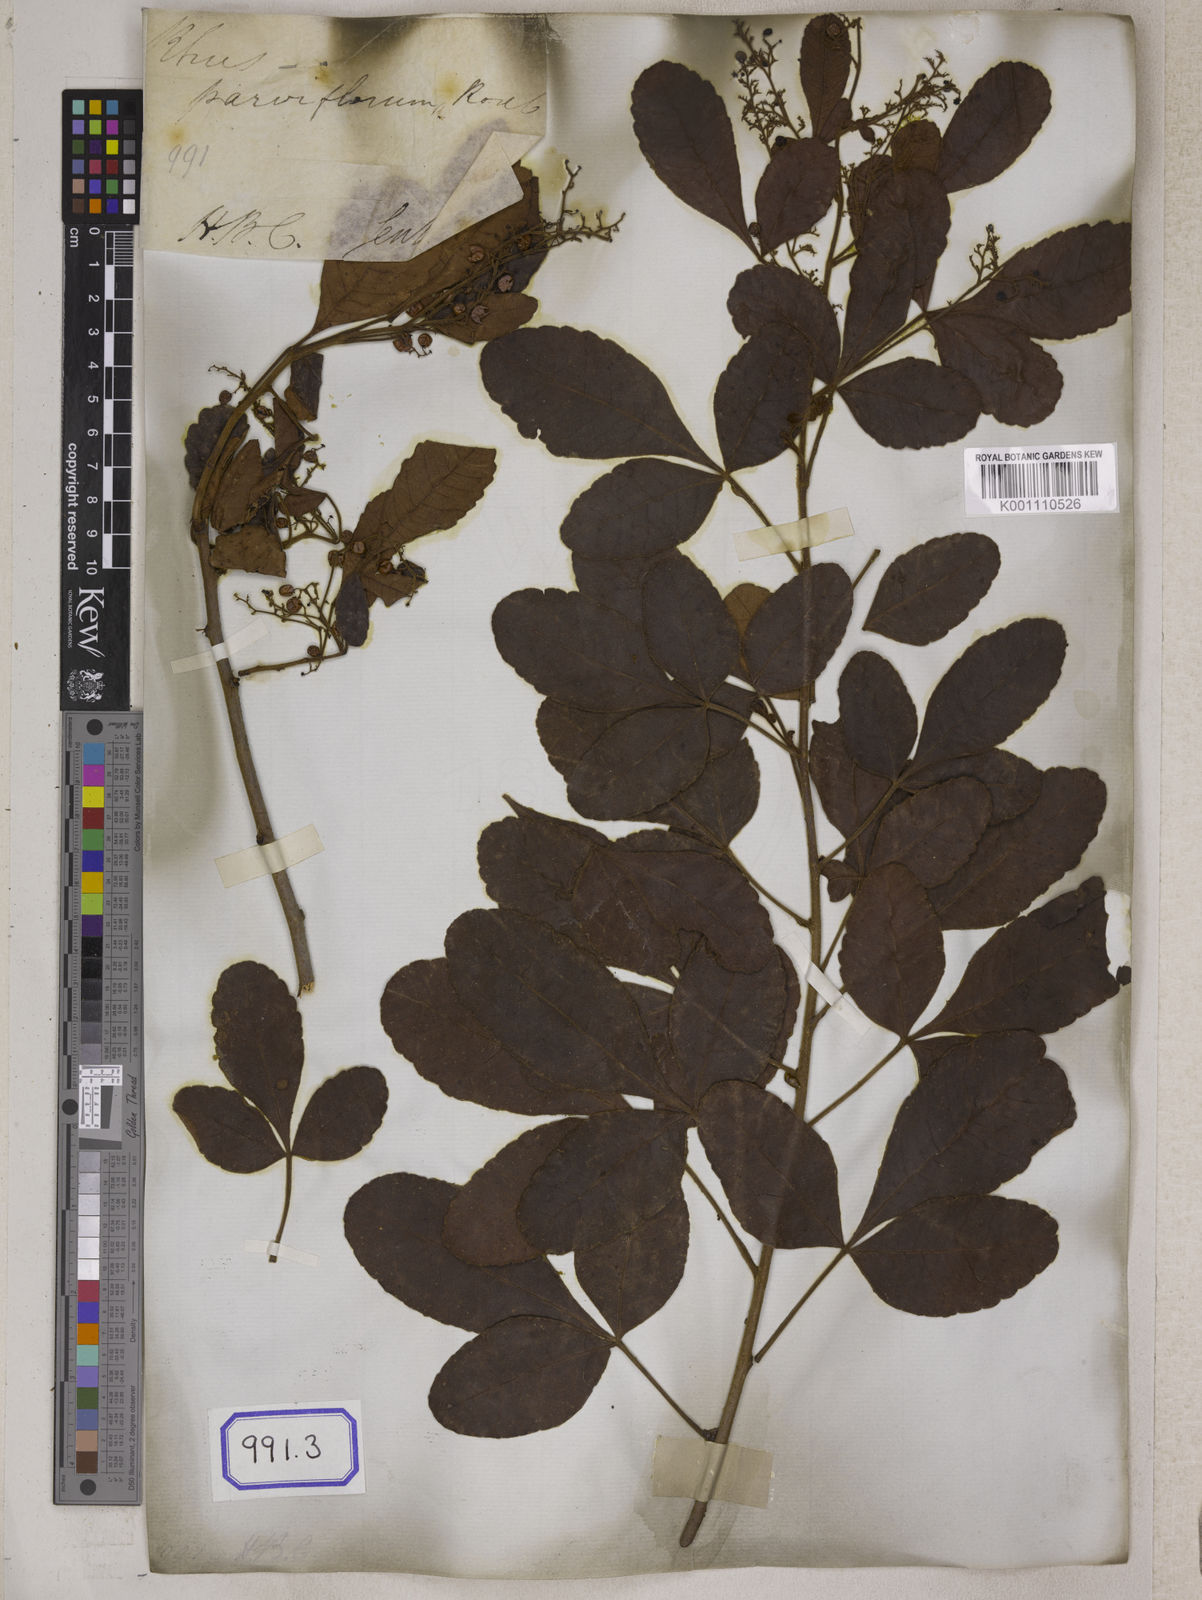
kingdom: Plantae
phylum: Tracheophyta
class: Magnoliopsida
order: Sapindales
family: Anacardiaceae
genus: Searsia
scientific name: Searsia parviflora
